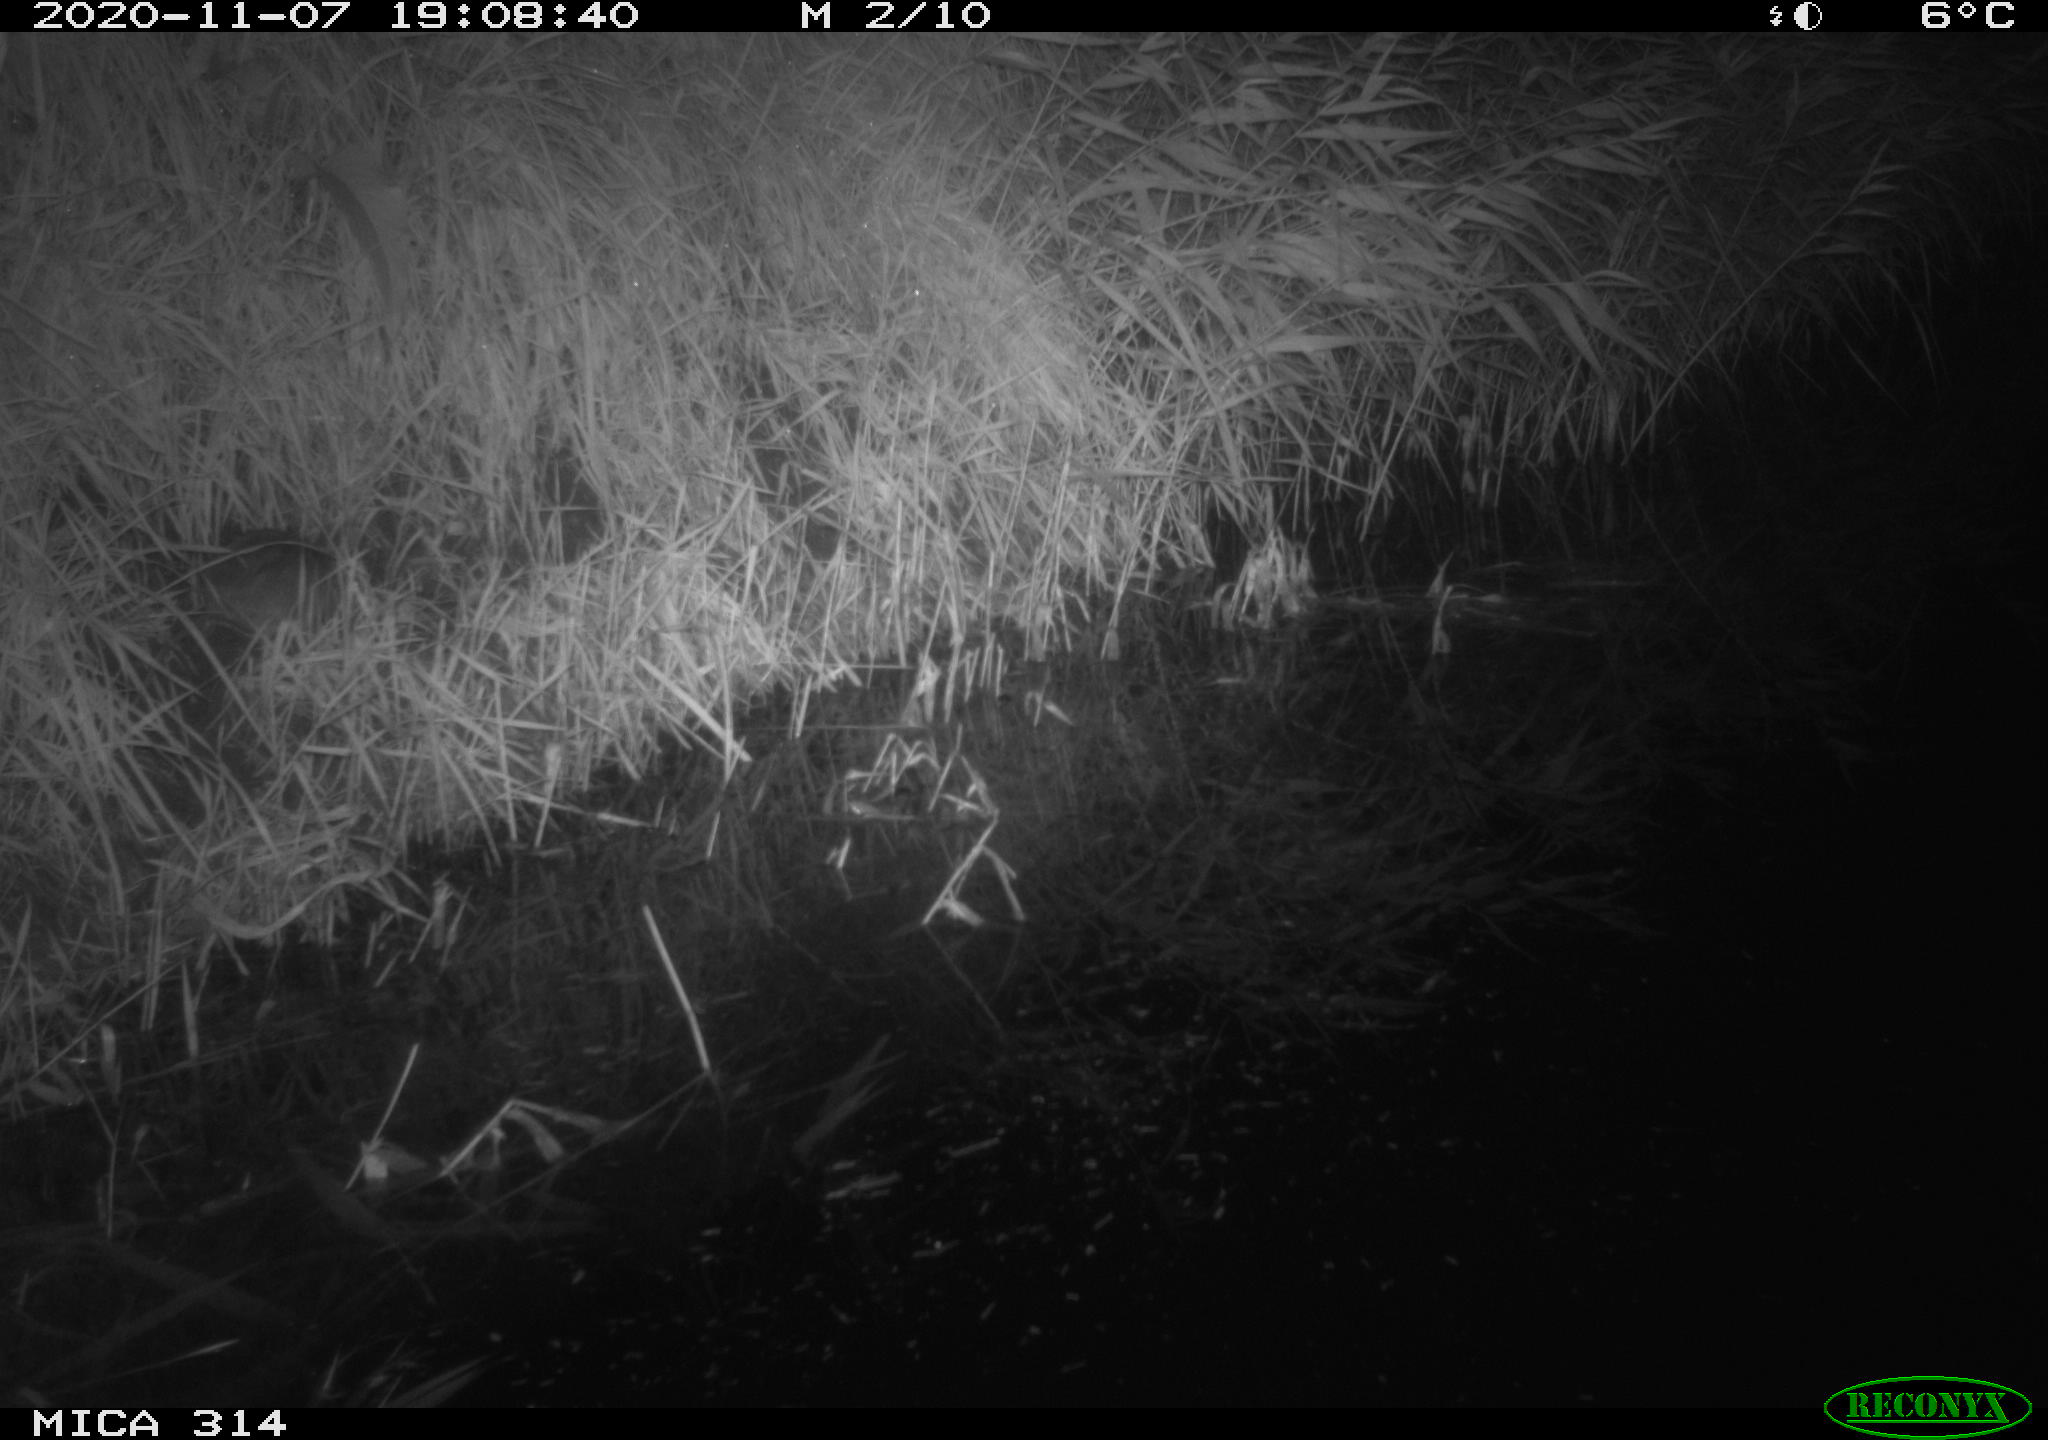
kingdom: Animalia
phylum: Chordata
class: Mammalia
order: Rodentia
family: Muridae
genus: Rattus
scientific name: Rattus norvegicus
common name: Brown rat
